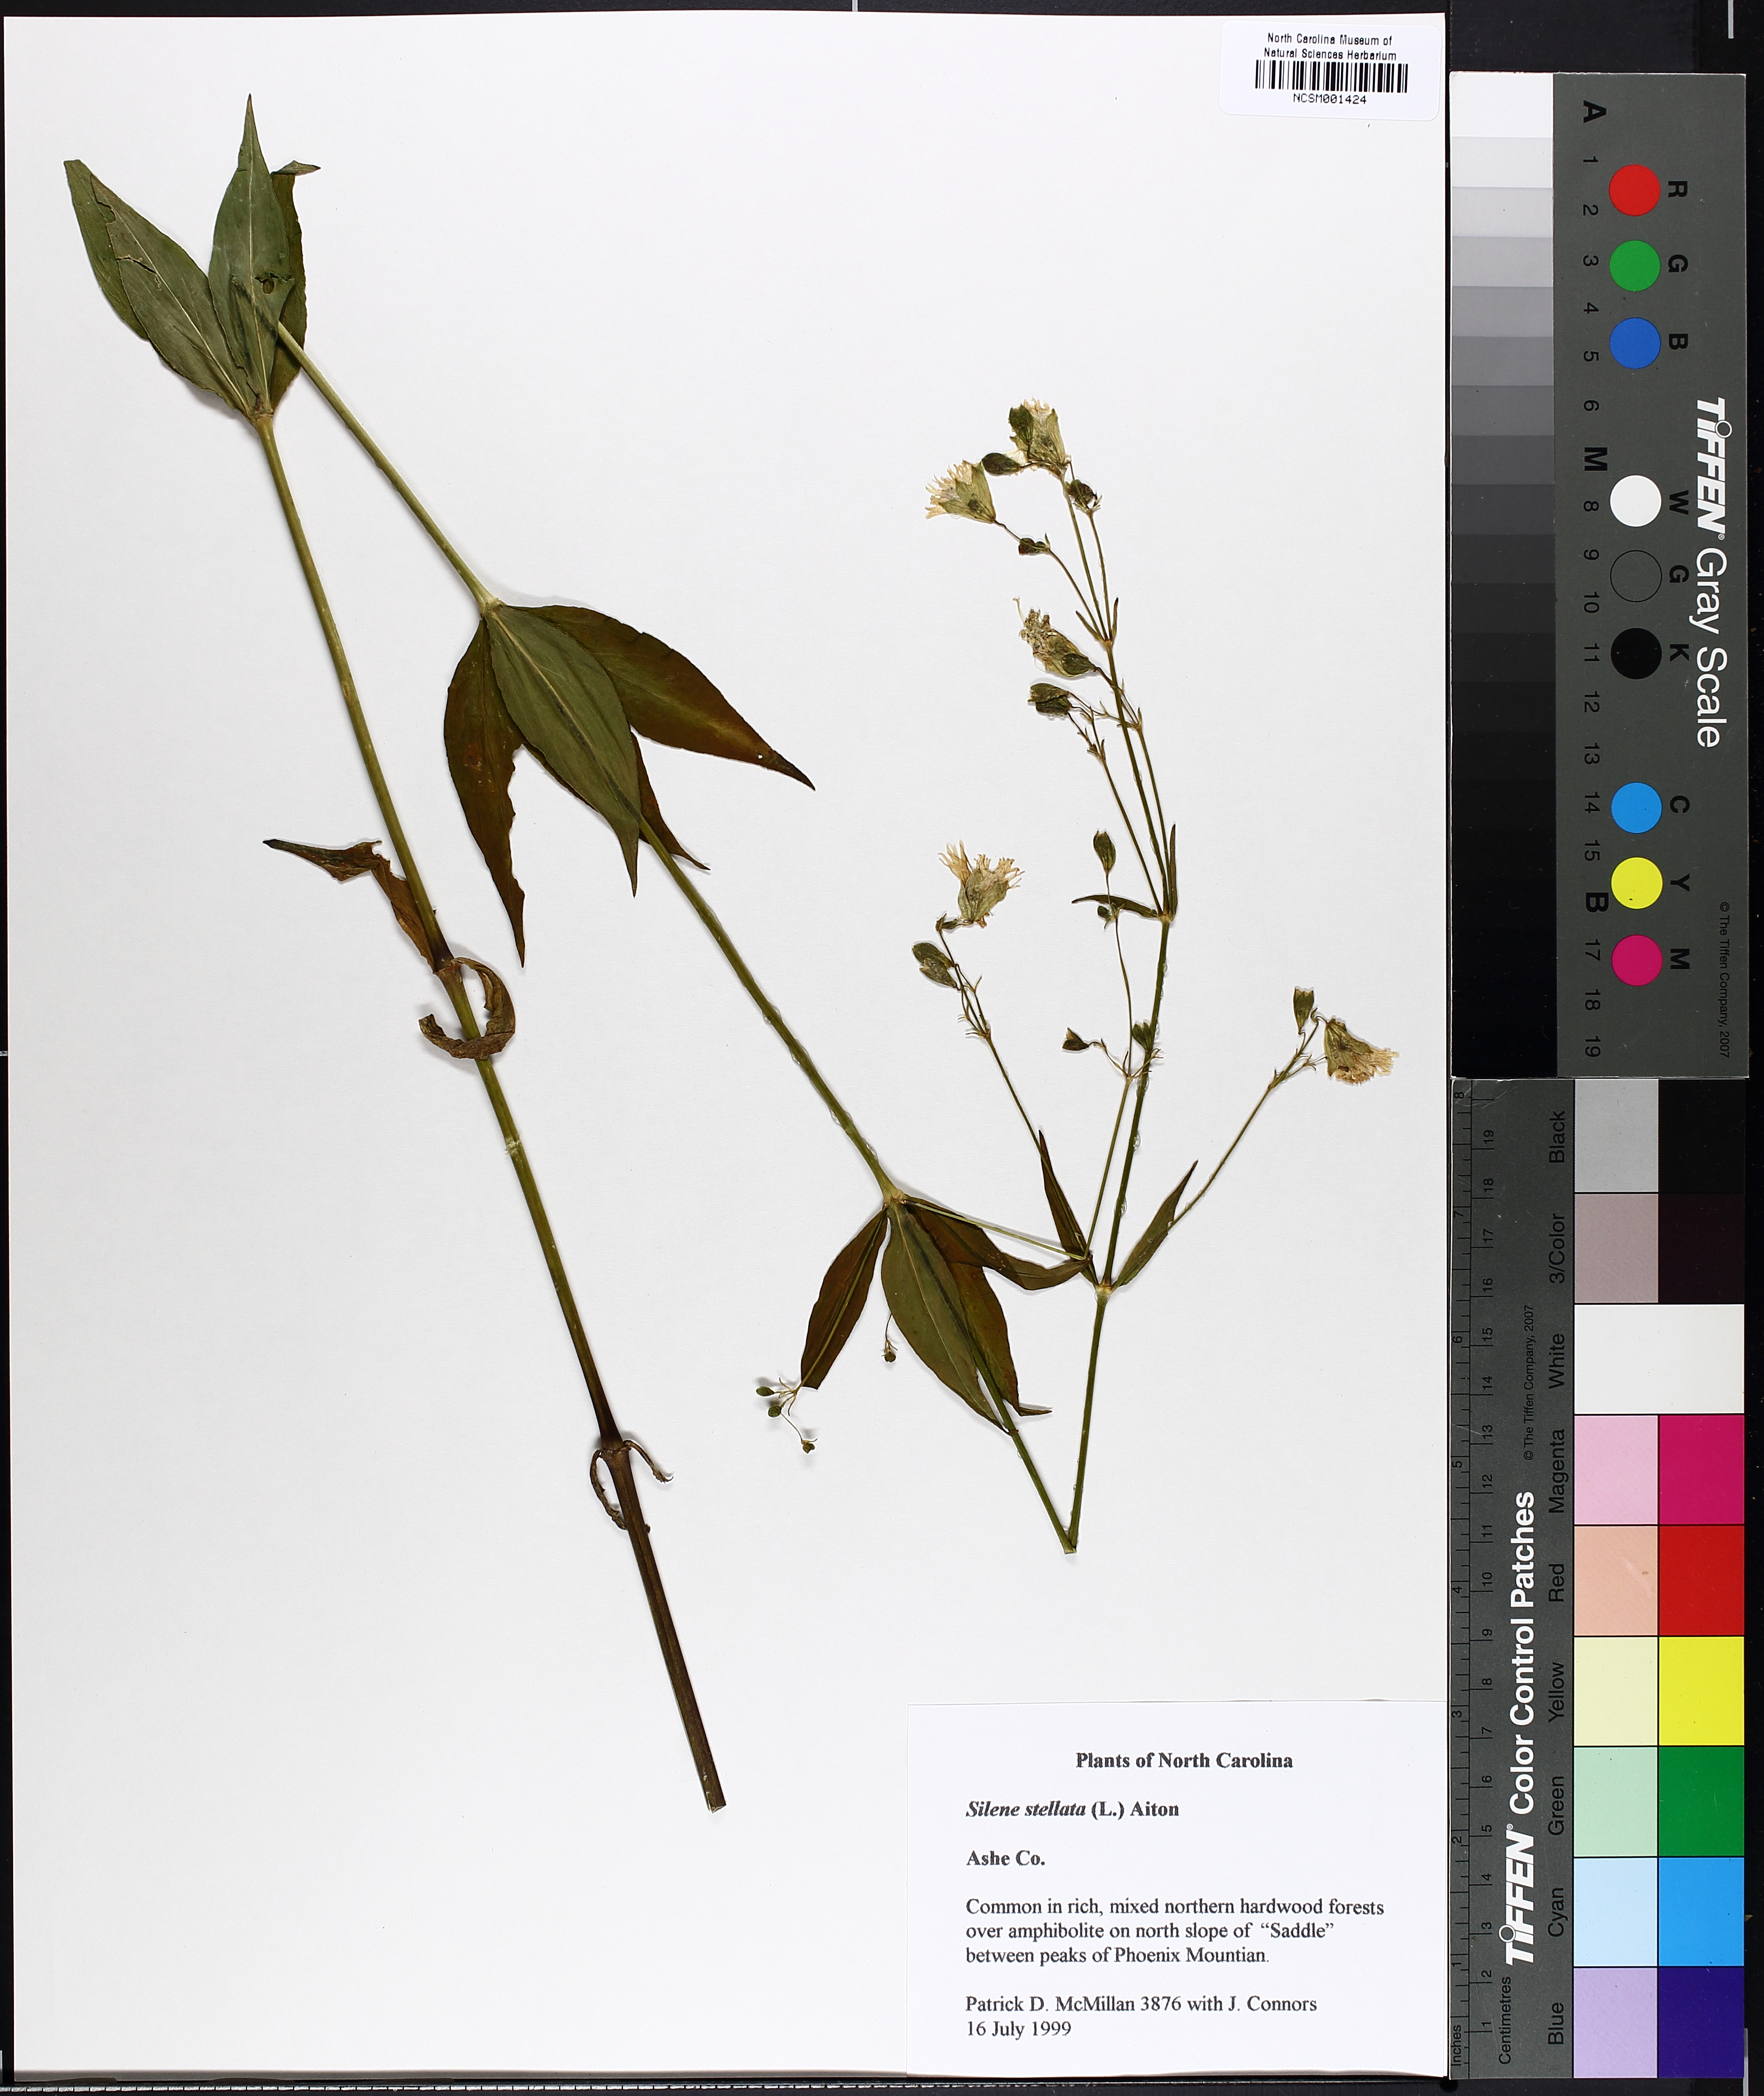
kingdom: Plantae
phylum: Tracheophyta
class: Magnoliopsida
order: Caryophyllales
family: Caryophyllaceae
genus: Silene
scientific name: Silene stellata
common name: Starry campion
